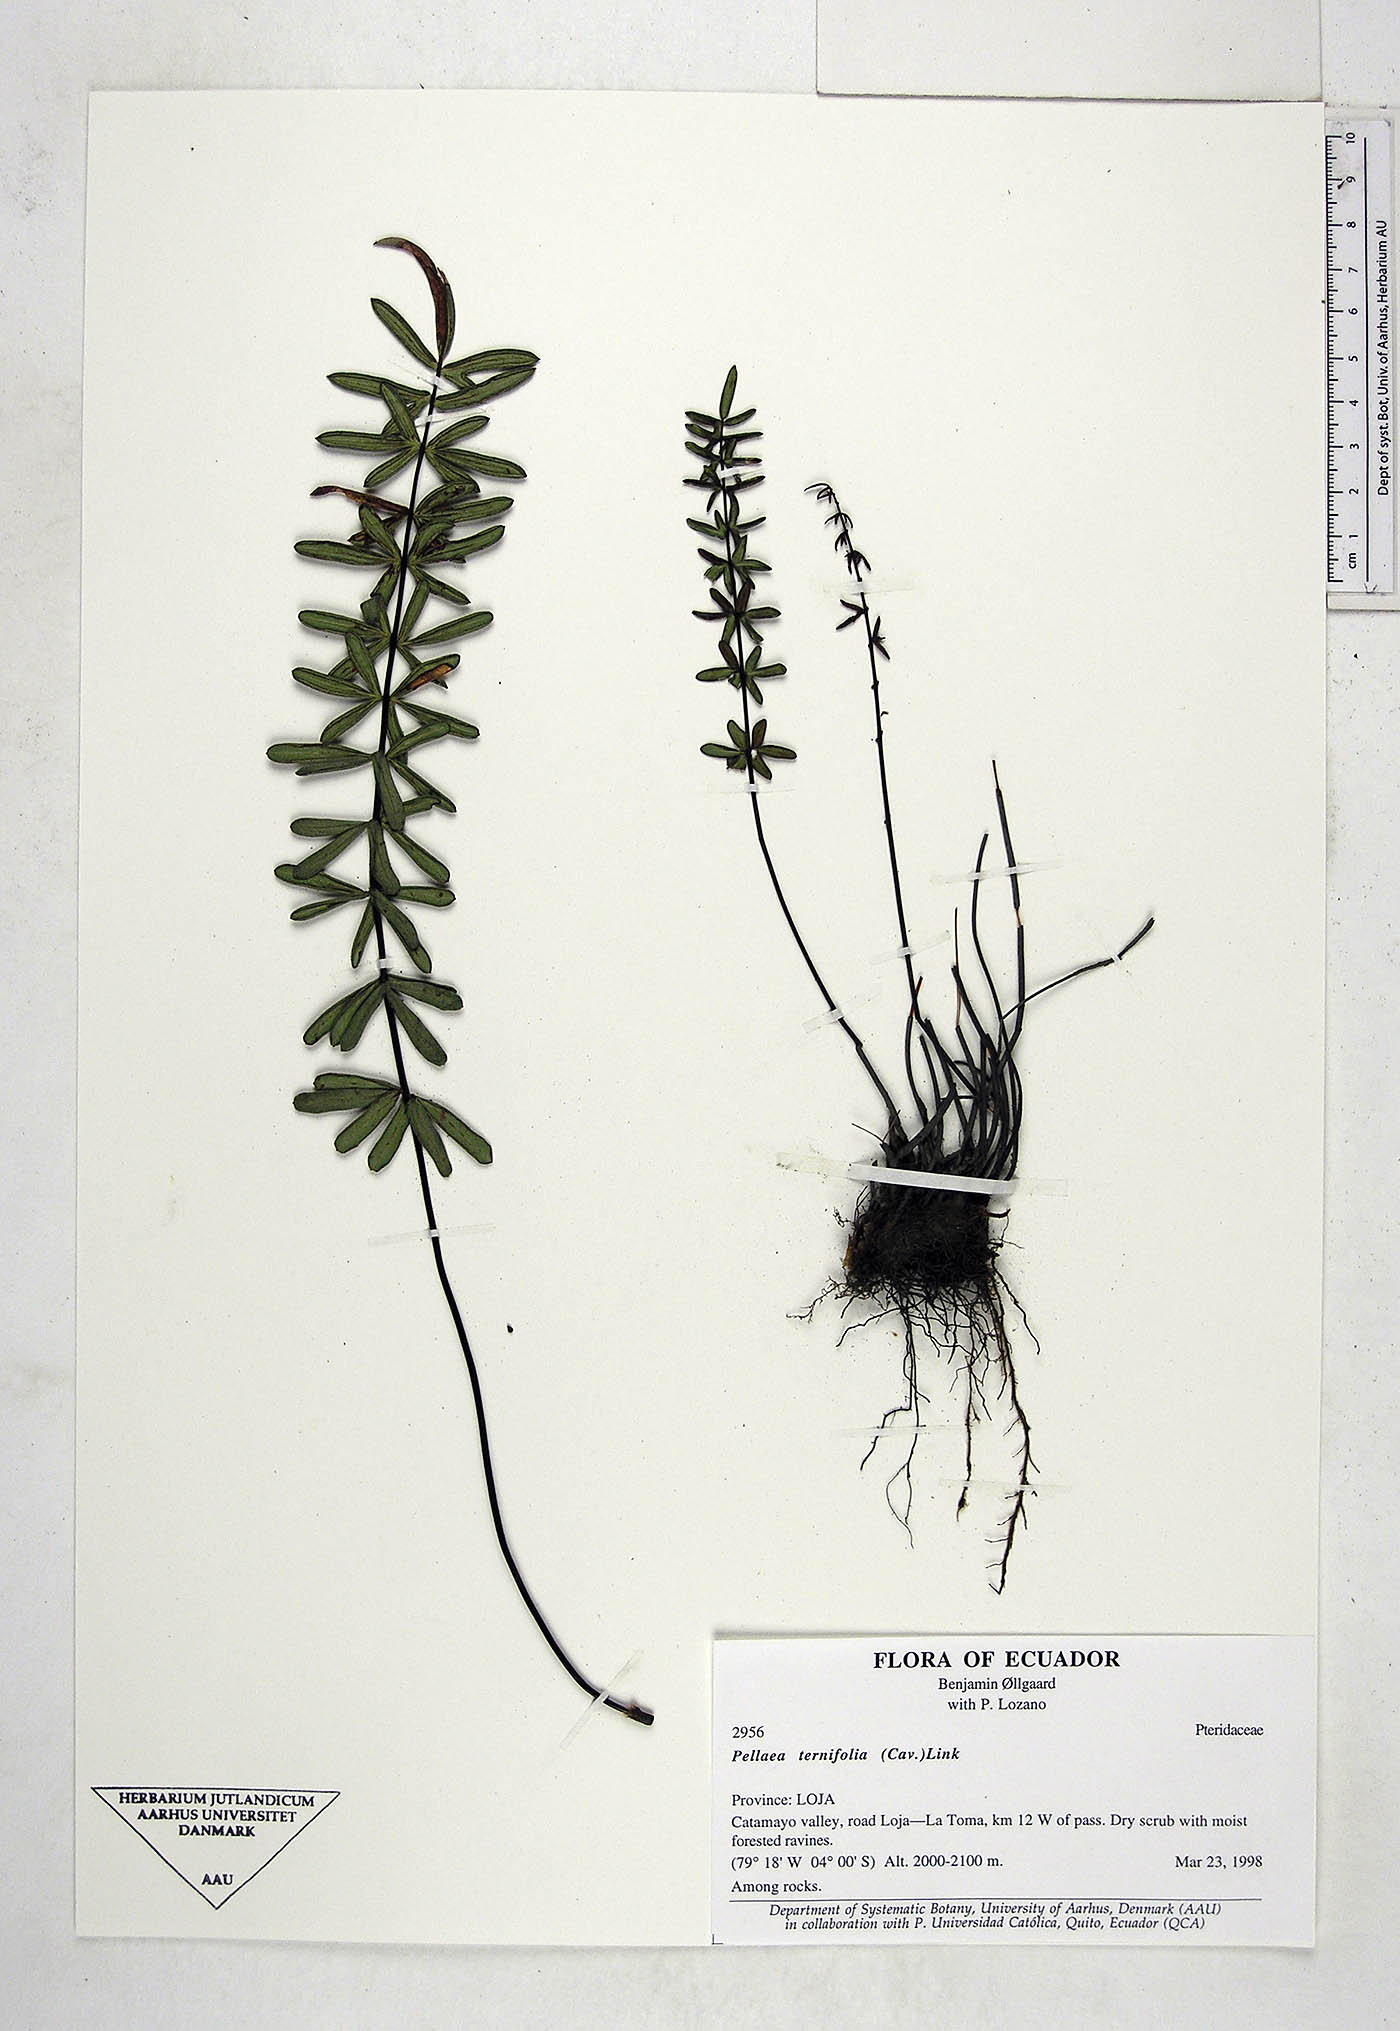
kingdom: Plantae
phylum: Tracheophyta
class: Polypodiopsida
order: Polypodiales
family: Pteridaceae
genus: Pellaea
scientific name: Pellaea ternifolia
